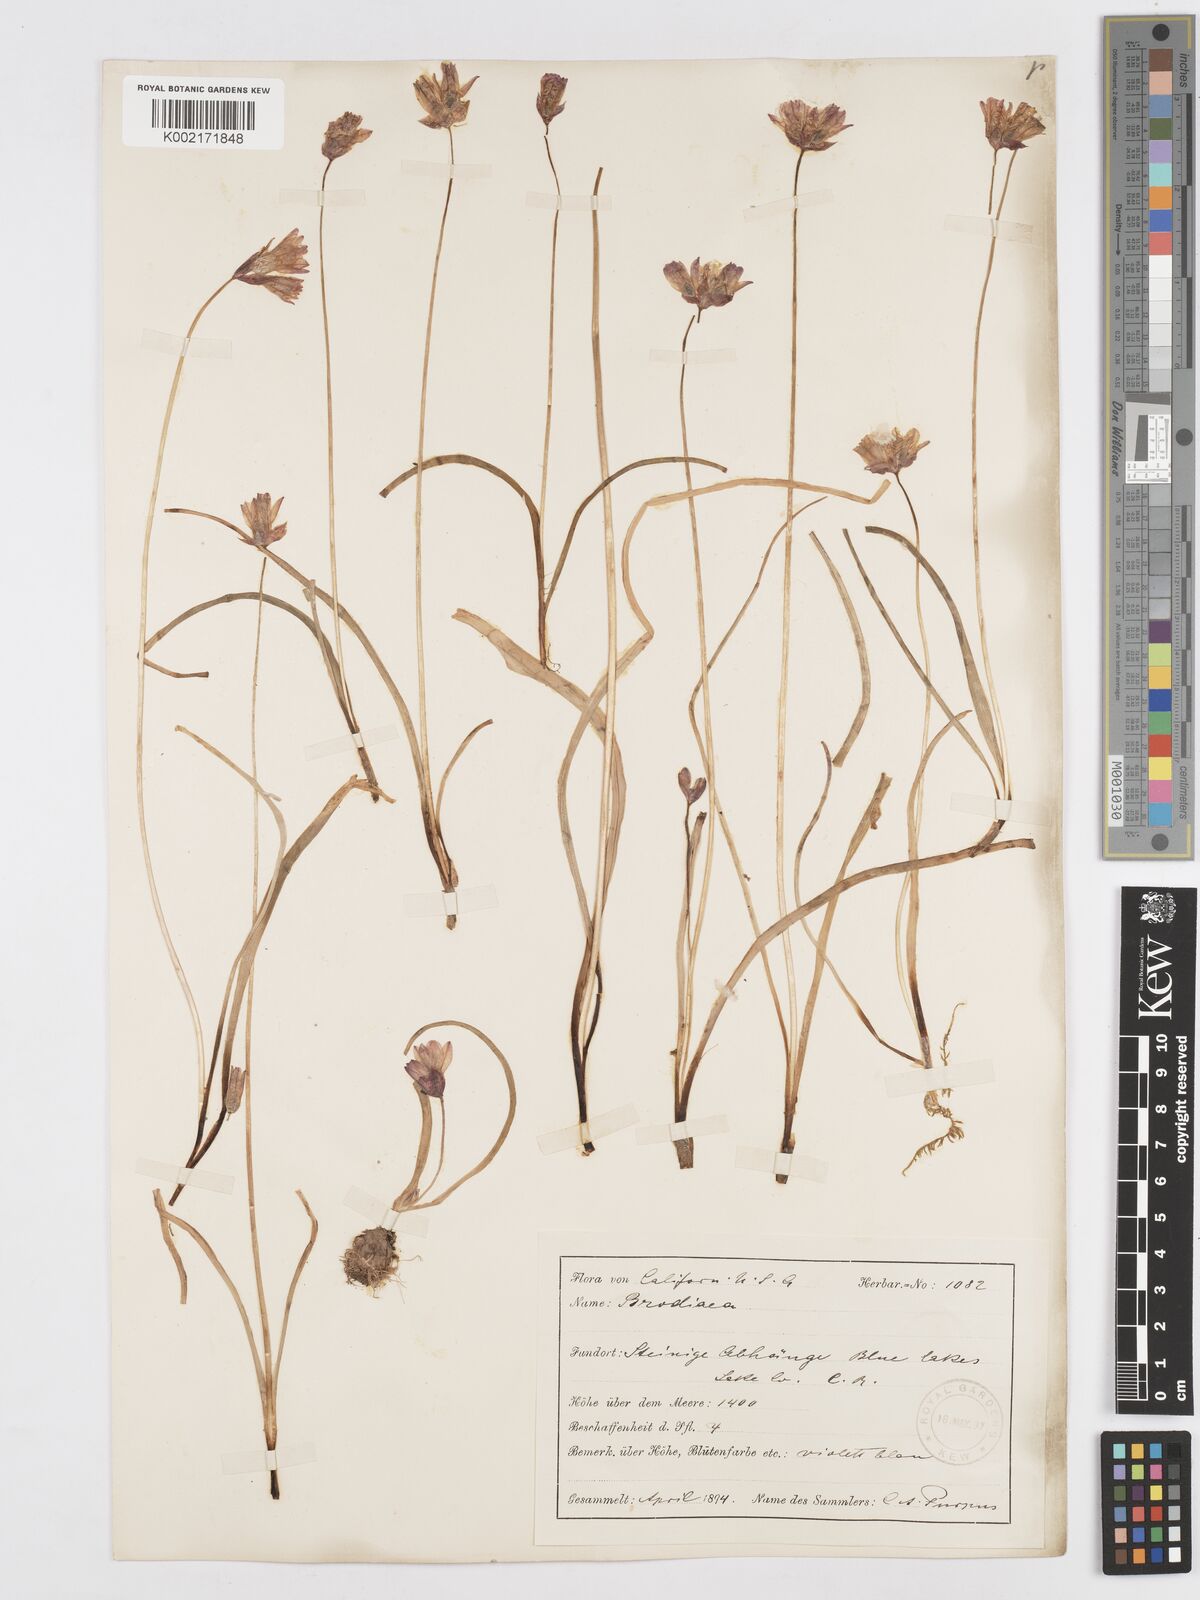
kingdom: Plantae
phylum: Tracheophyta
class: Liliopsida
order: Asparagales
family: Asparagaceae
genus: Dichelostemma
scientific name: Dichelostemma congestum
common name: Fork-tooth ookow
